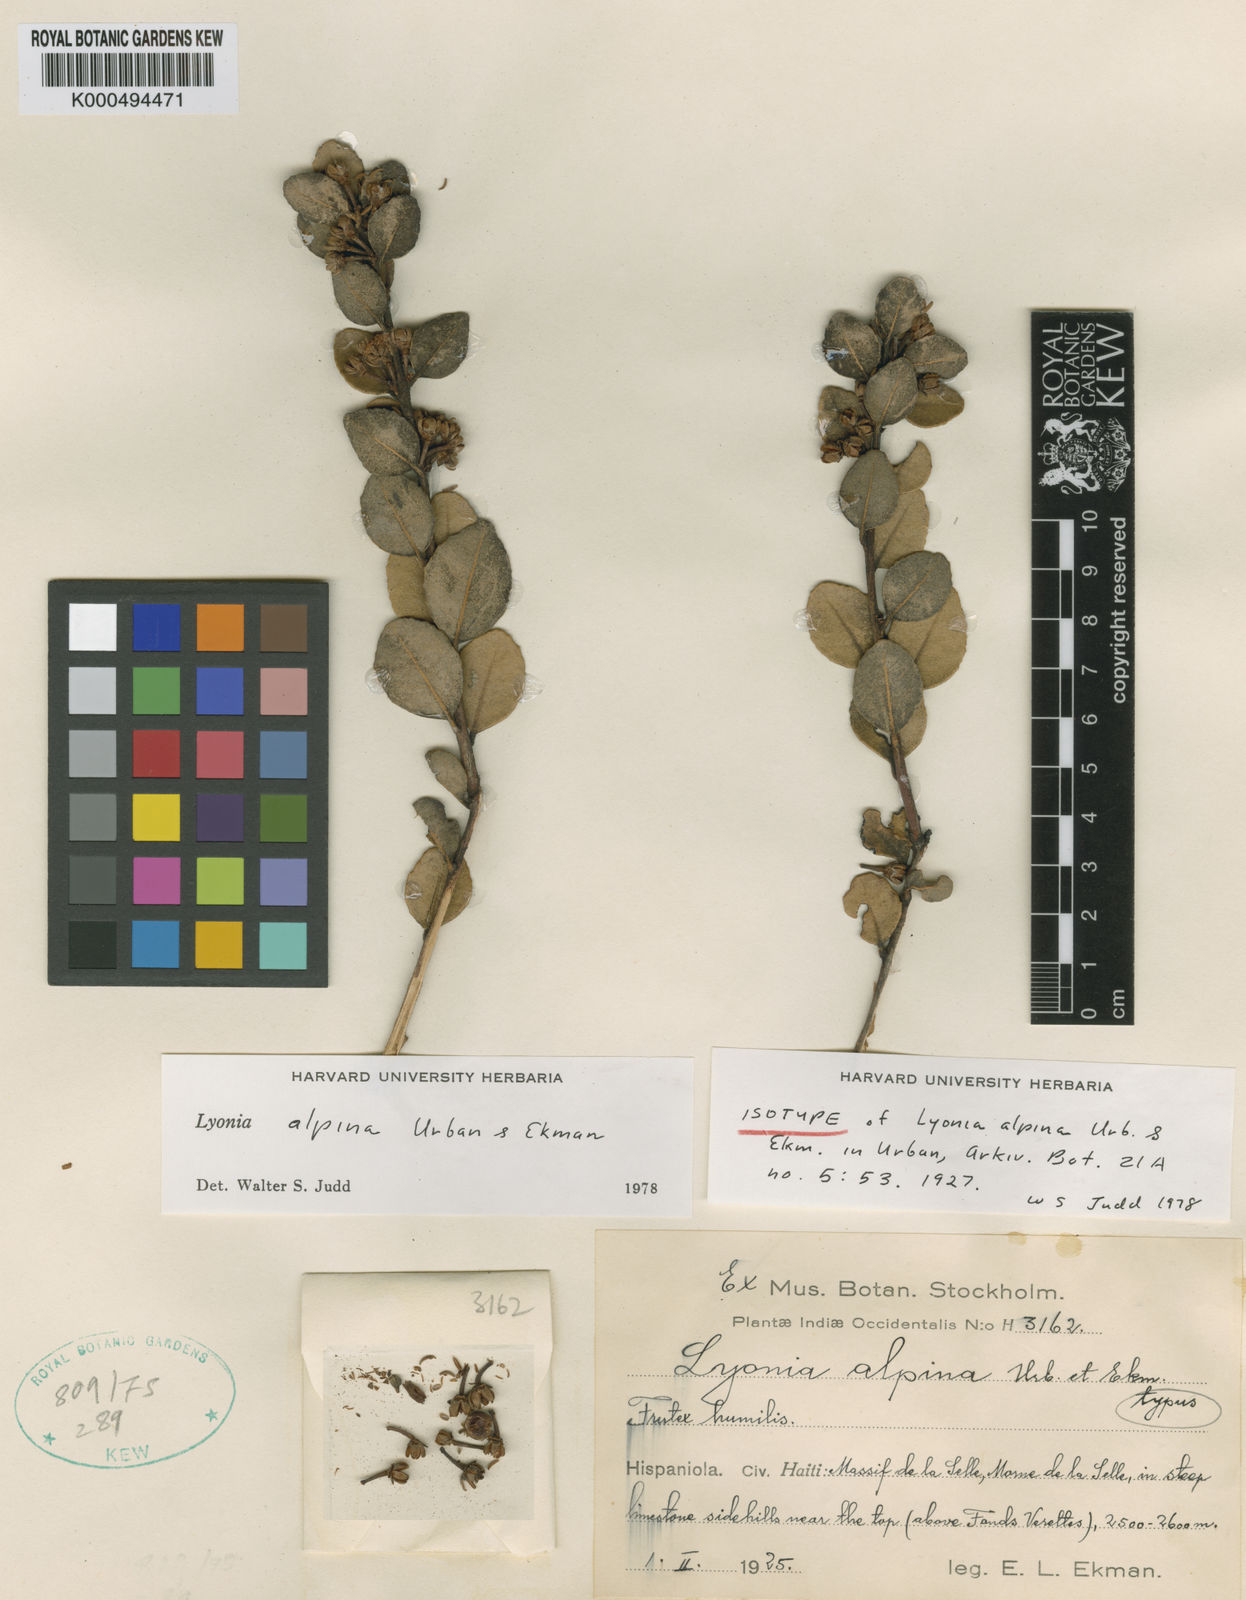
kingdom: Plantae
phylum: Tracheophyta
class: Magnoliopsida
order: Ericales
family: Ericaceae
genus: Lyonia
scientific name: Lyonia alpina
